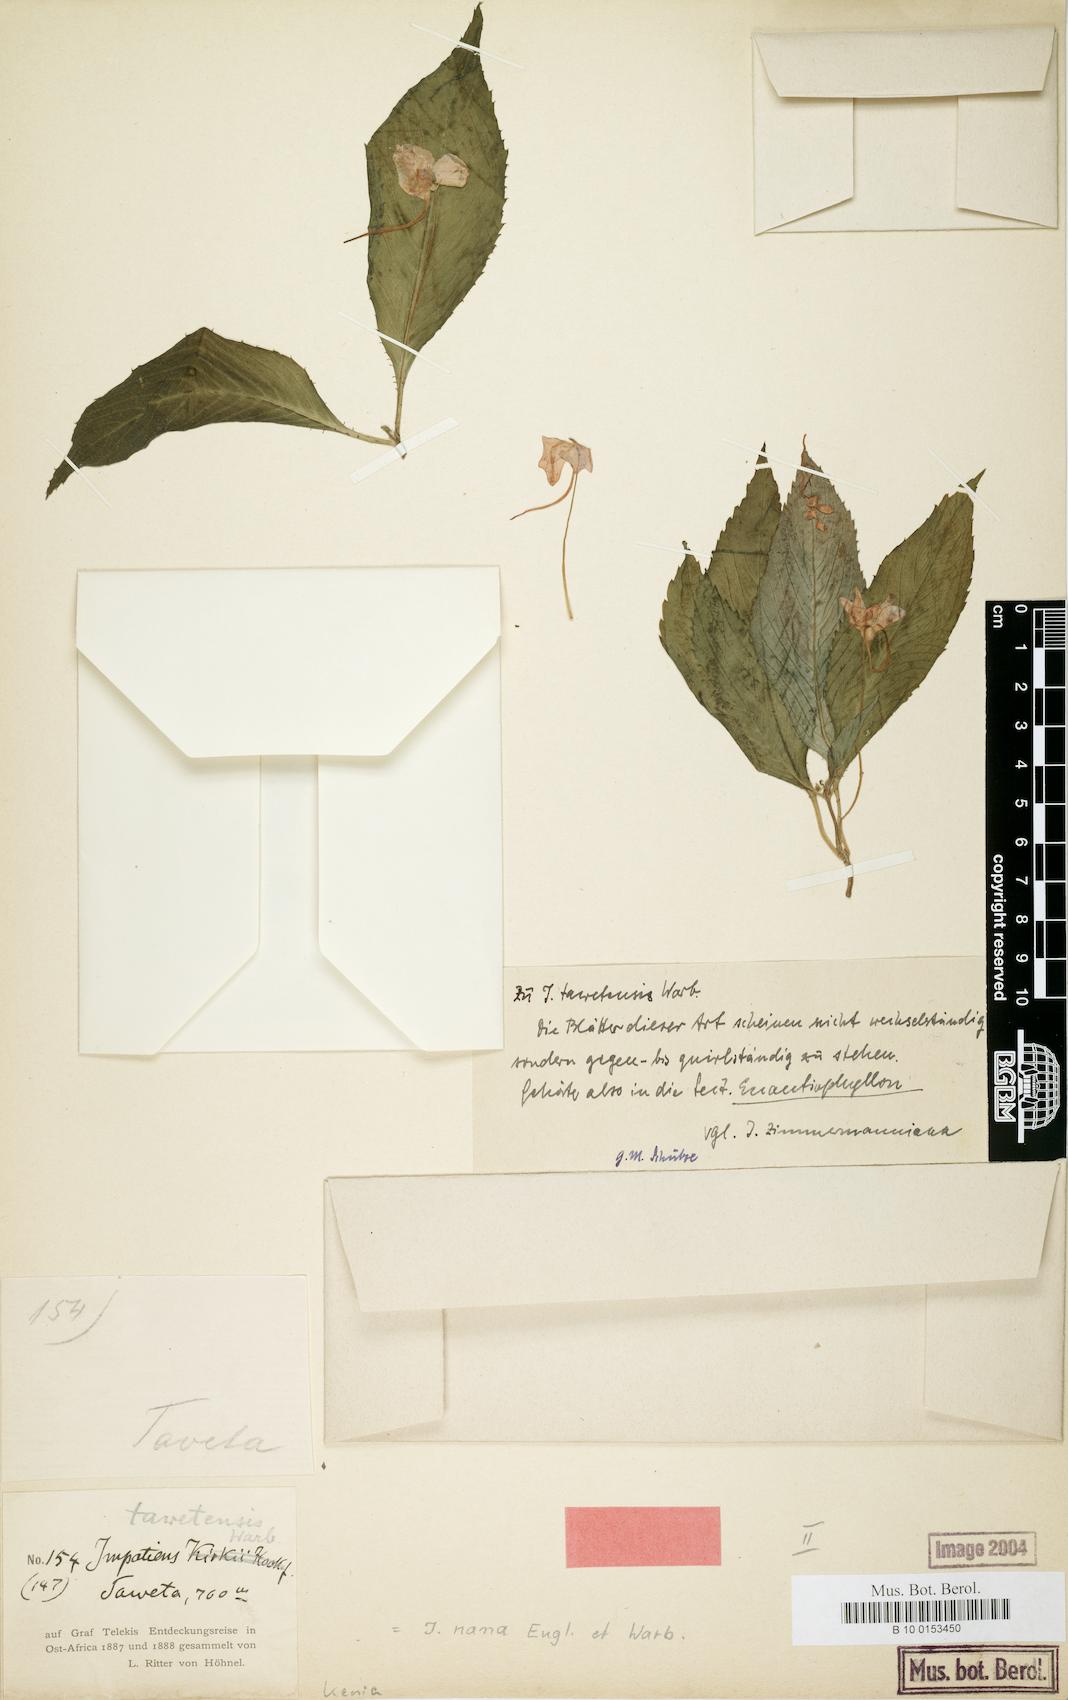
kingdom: Plantae
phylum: Tracheophyta
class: Magnoliopsida
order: Ericales
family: Balsaminaceae
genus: Impatiens
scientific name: Impatiens nana
